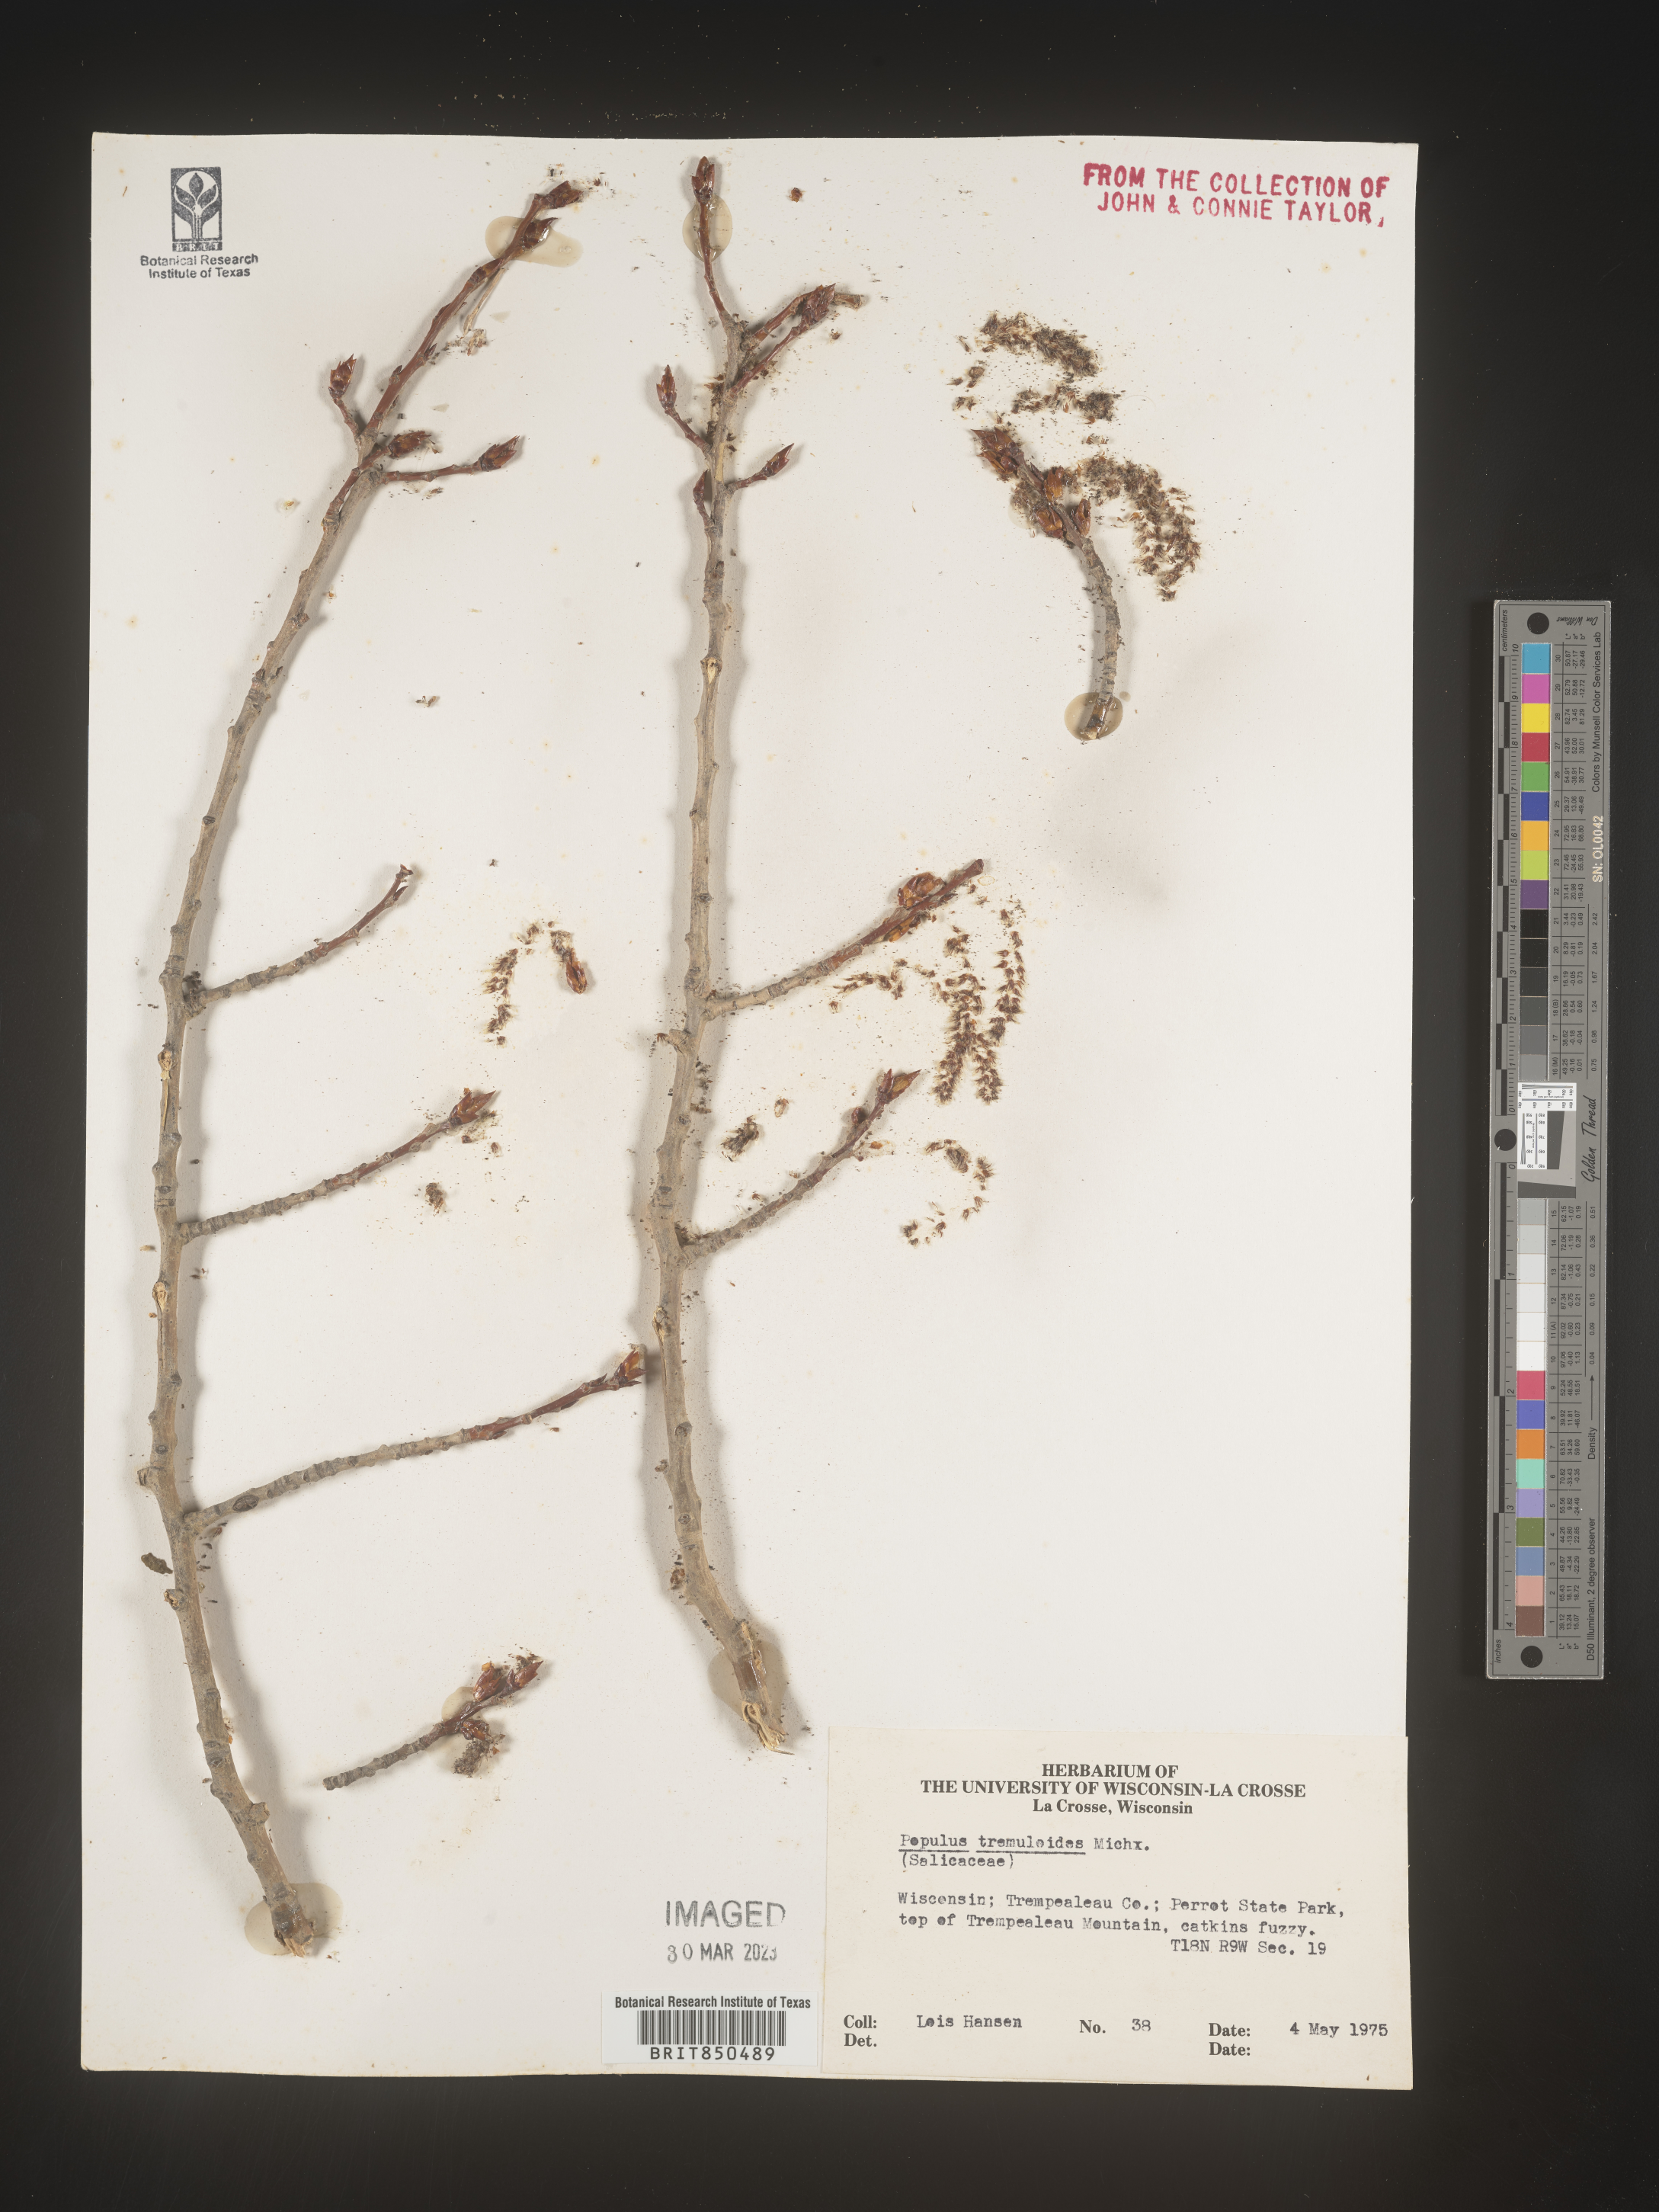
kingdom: Plantae
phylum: Tracheophyta
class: Magnoliopsida
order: Malpighiales
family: Salicaceae
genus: Populus
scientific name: Populus tremuloides
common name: Quaking aspen
